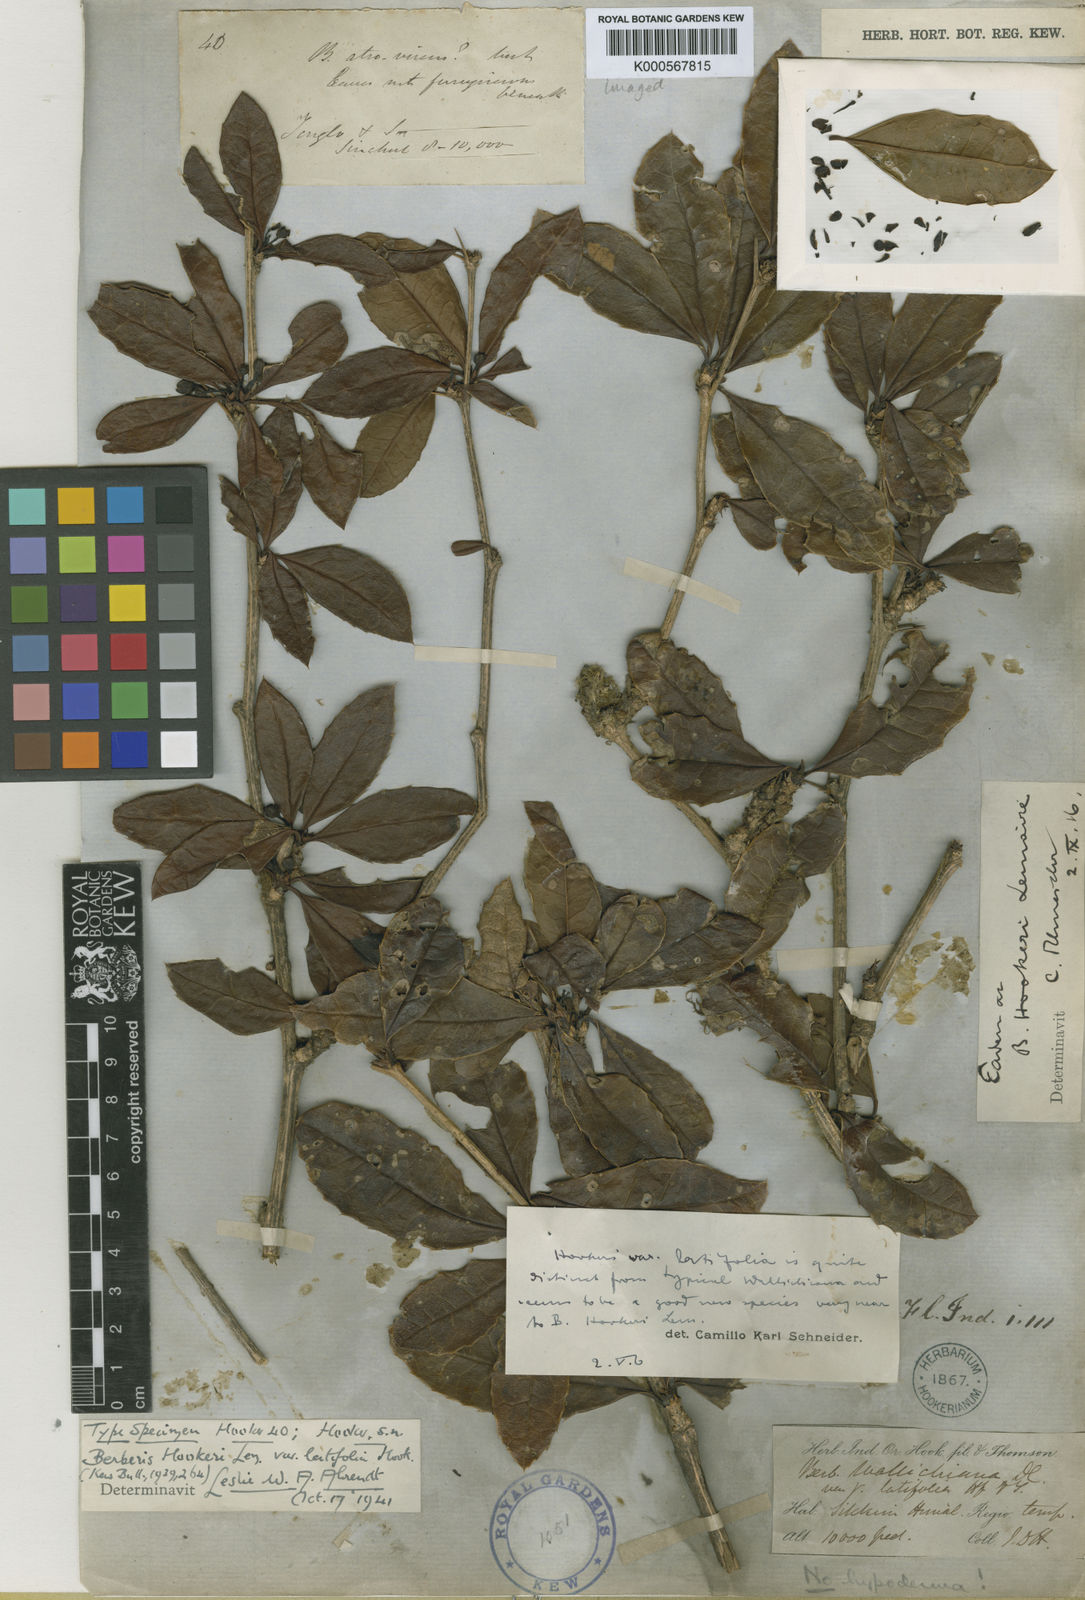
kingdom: Plantae
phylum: Tracheophyta
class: Magnoliopsida
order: Ranunculales
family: Berberidaceae
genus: Berberis
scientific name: Berberis hookeri
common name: Hooker's barberry
